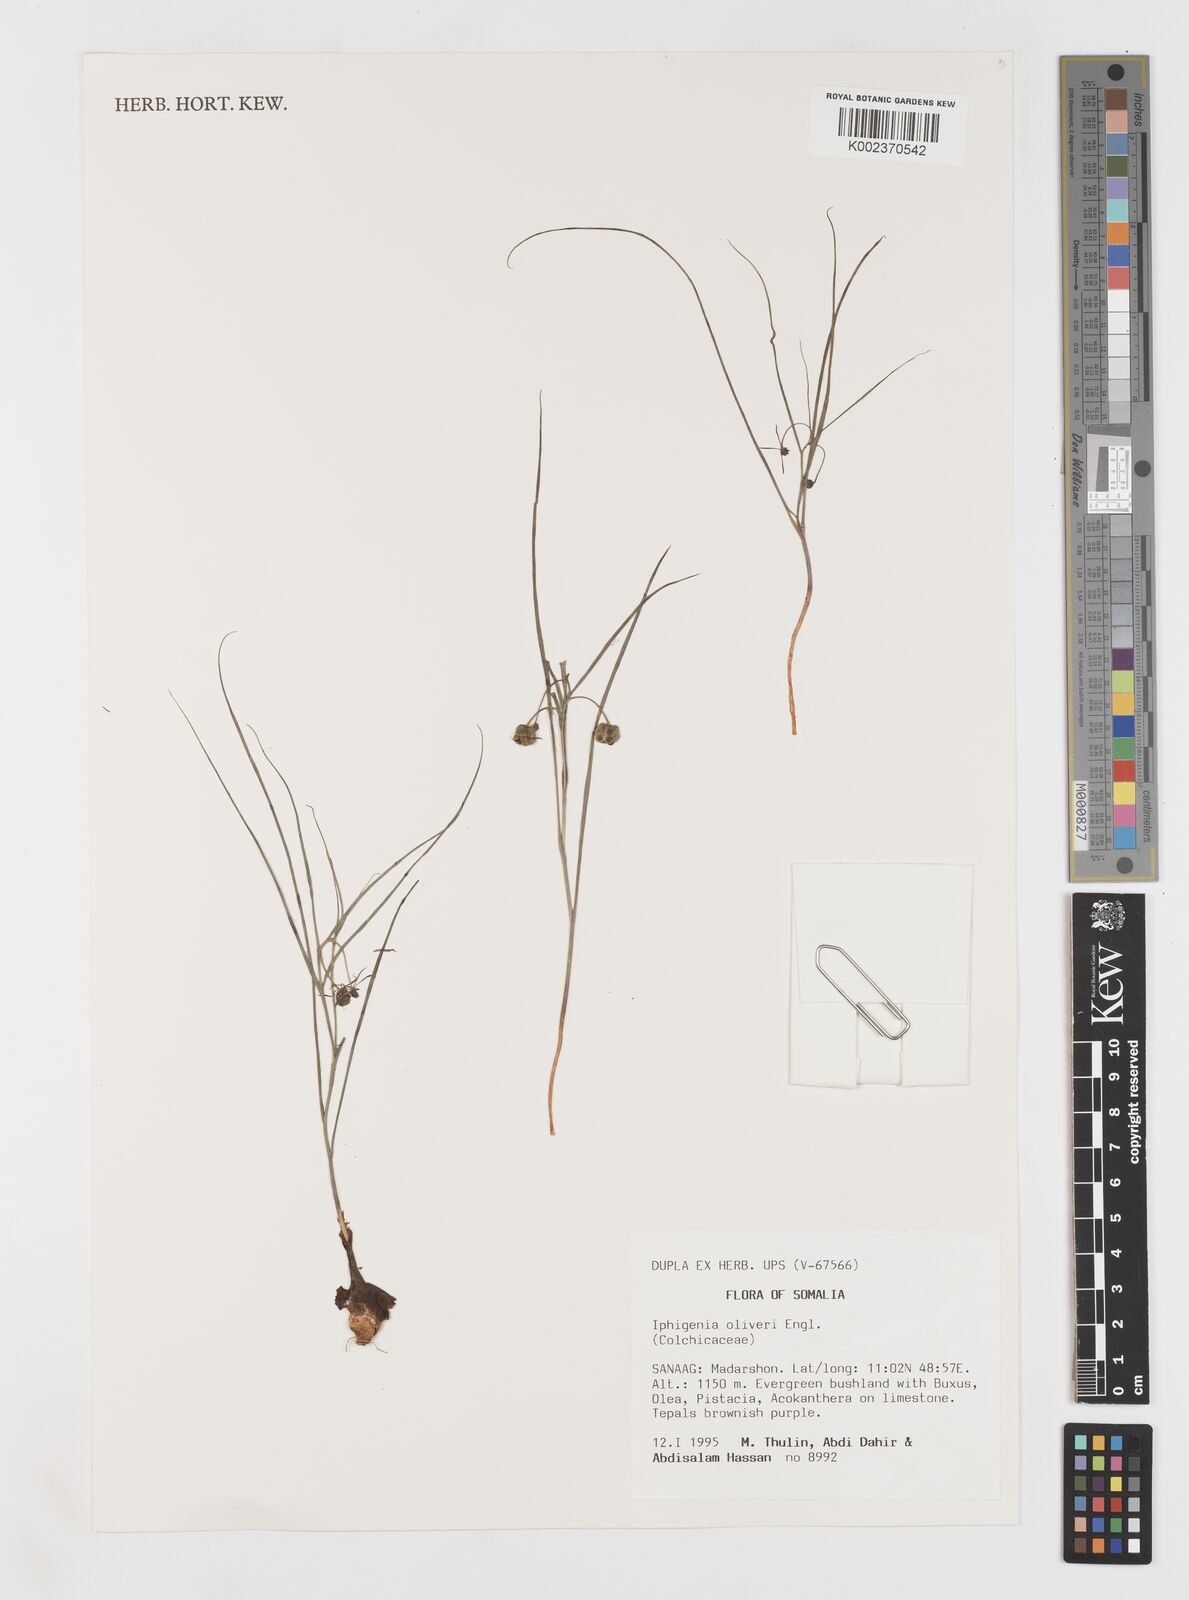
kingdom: Plantae
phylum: Tracheophyta
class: Liliopsida
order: Liliales
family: Colchicaceae
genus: Iphigenia
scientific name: Iphigenia oliveri
